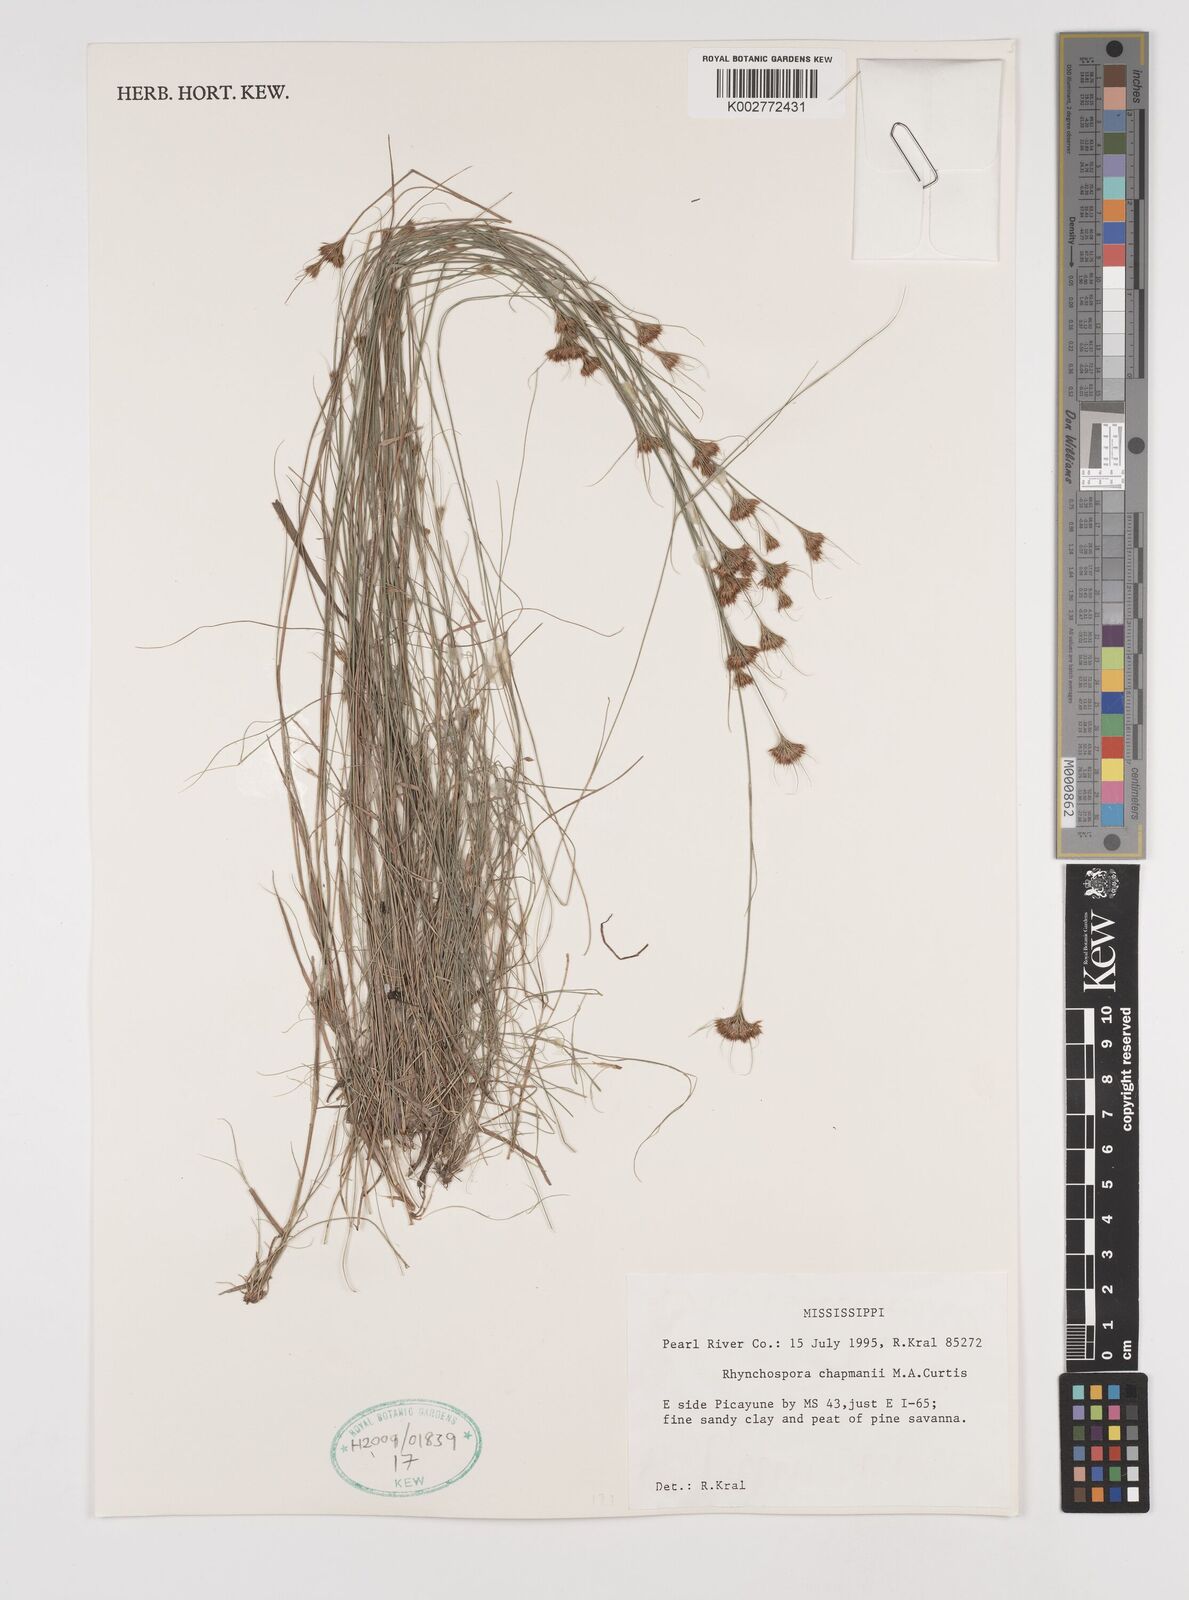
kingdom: Plantae
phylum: Tracheophyta
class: Liliopsida
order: Poales
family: Cyperaceae
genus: Rhynchospora
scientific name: Rhynchospora
